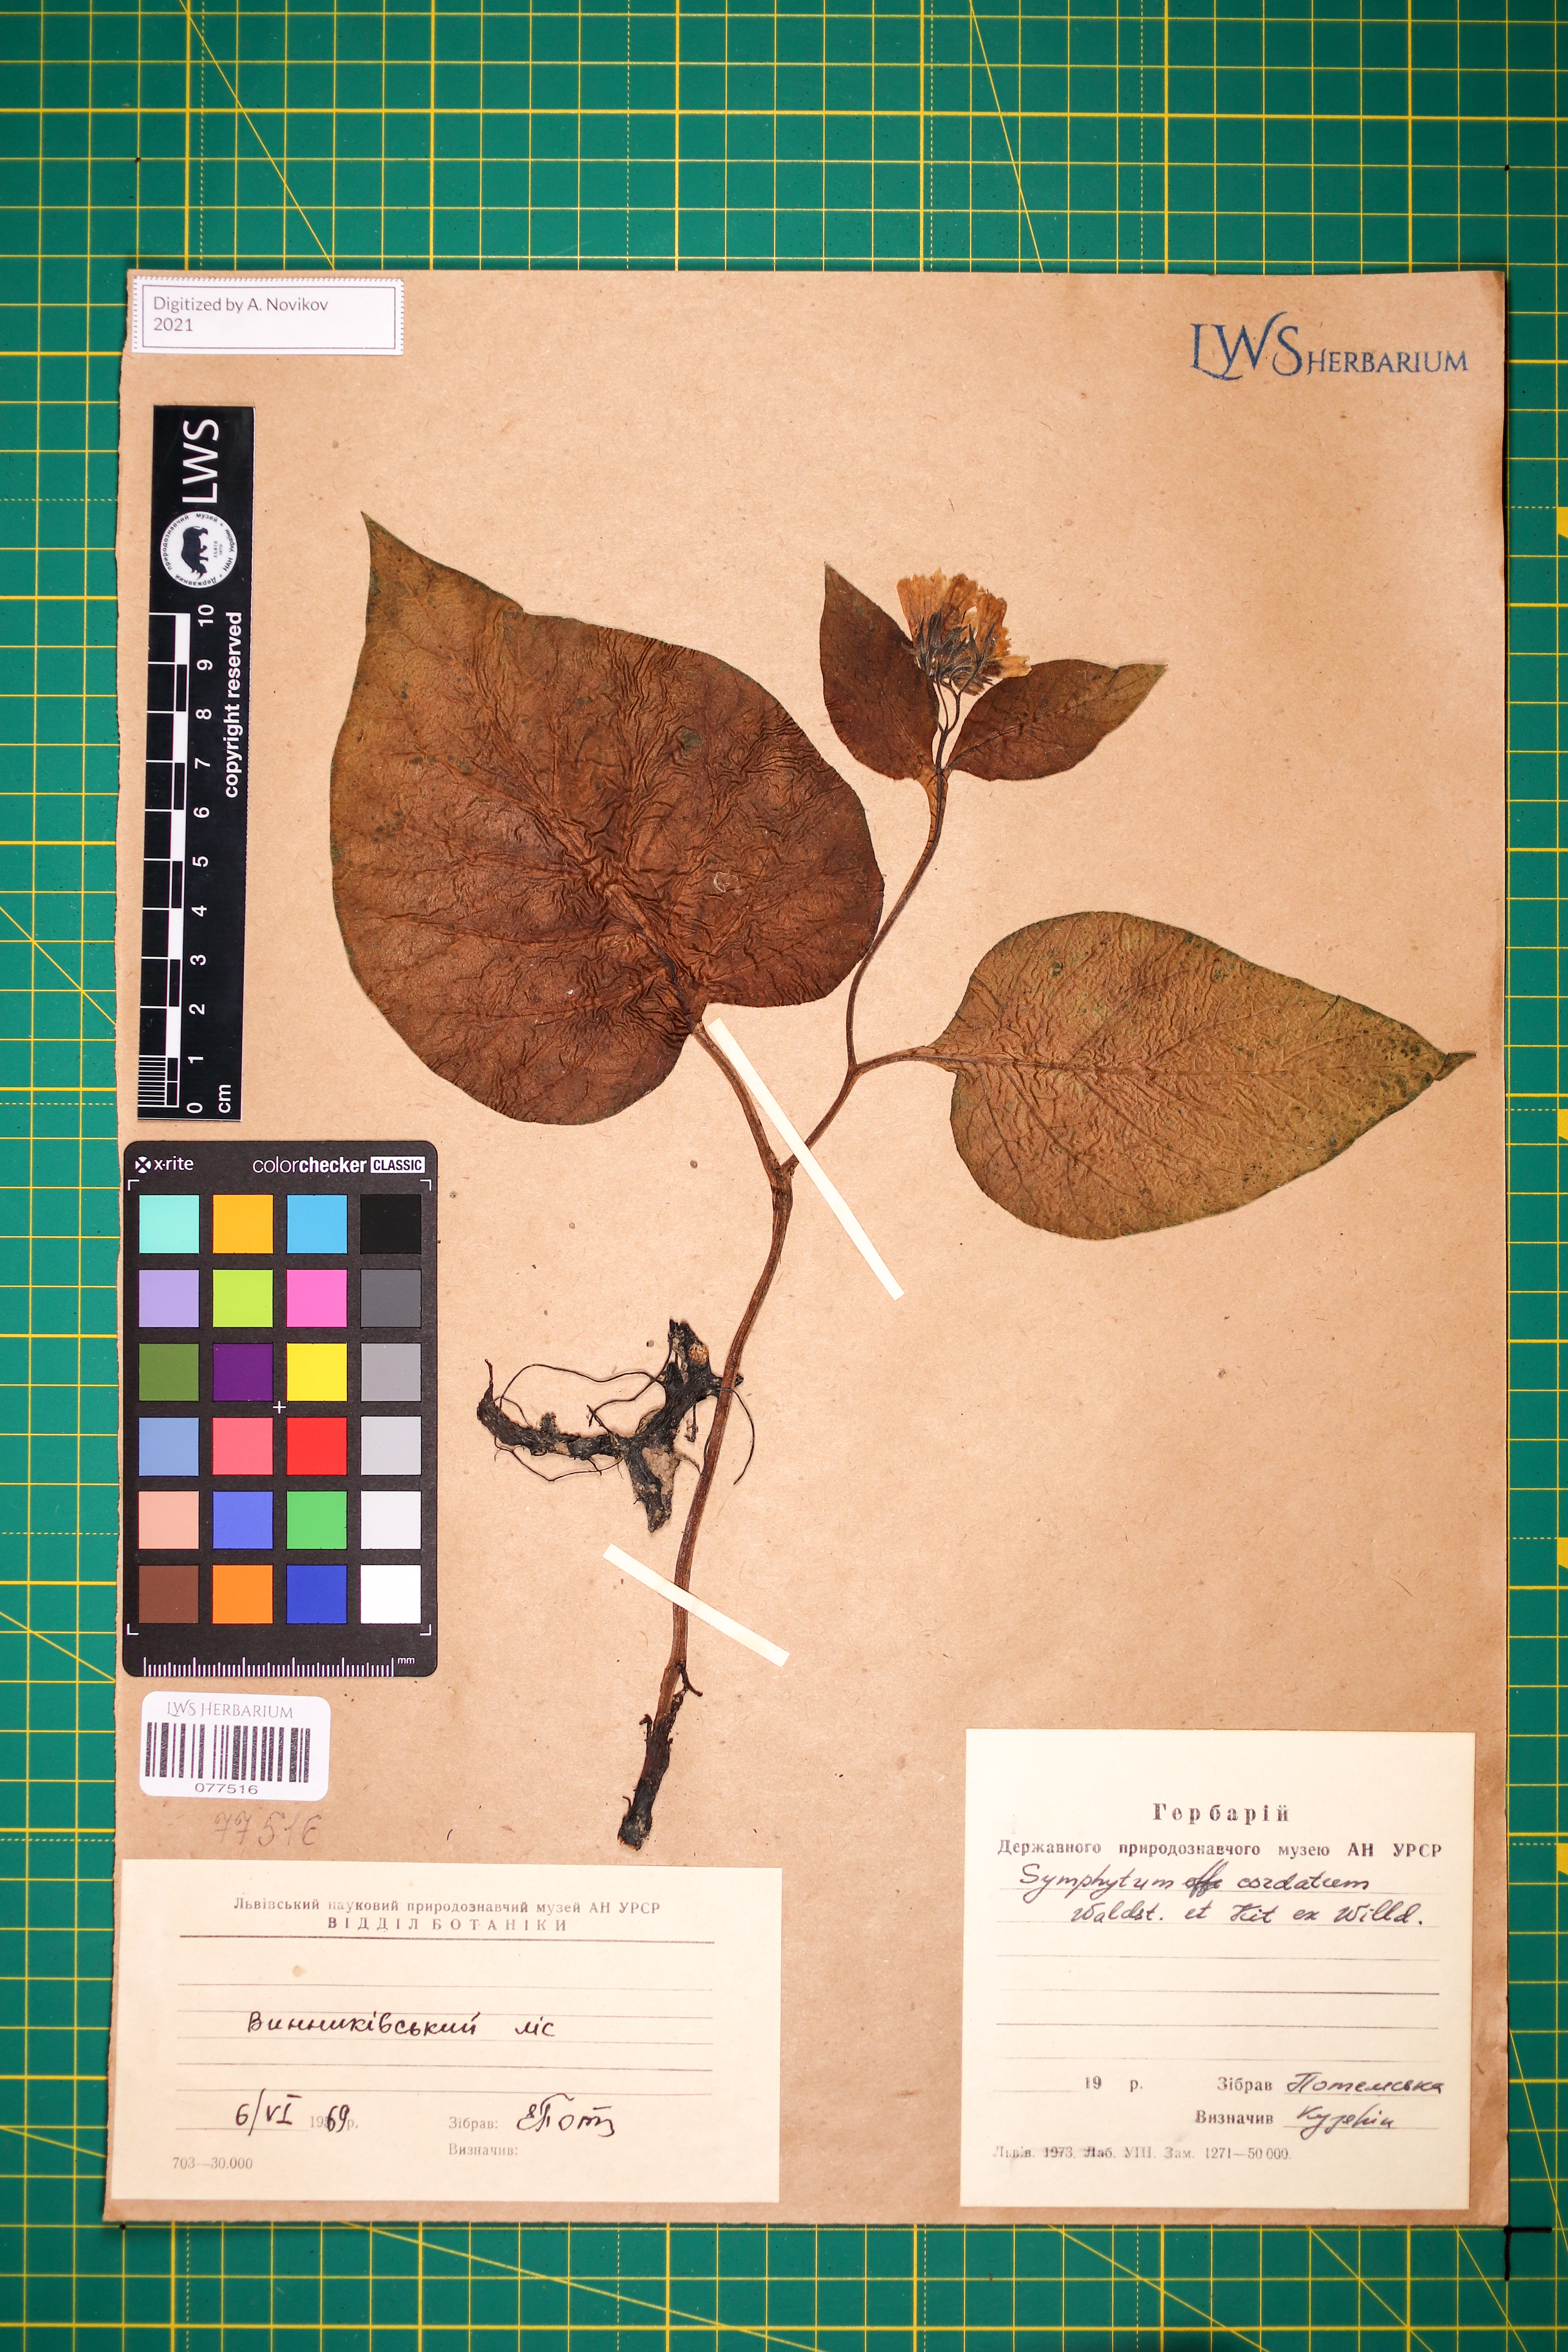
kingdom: Plantae
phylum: Tracheophyta
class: Magnoliopsida
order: Boraginales
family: Boraginaceae
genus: Symphytum
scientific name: Symphytum cordatum
